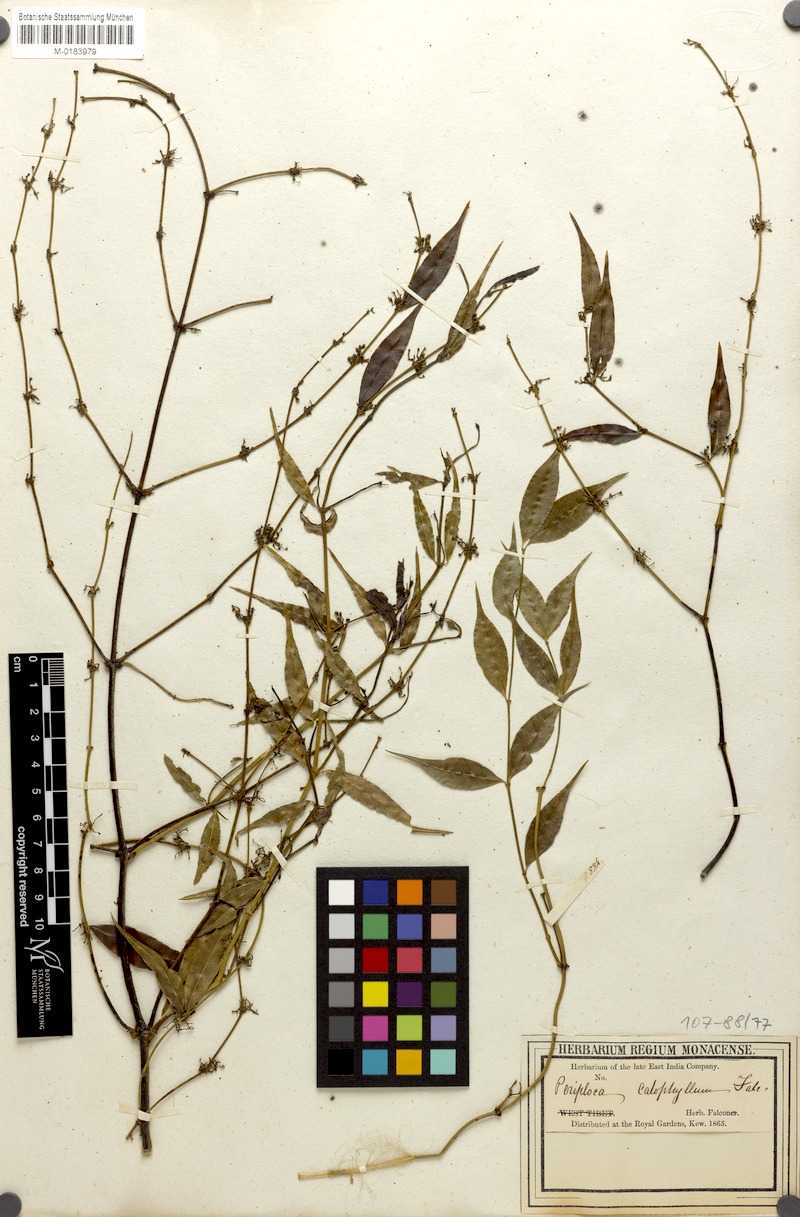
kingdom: Plantae
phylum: Tracheophyta
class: Magnoliopsida
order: Gentianales
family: Apocynaceae
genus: Periploca
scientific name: Periploca calophylla
